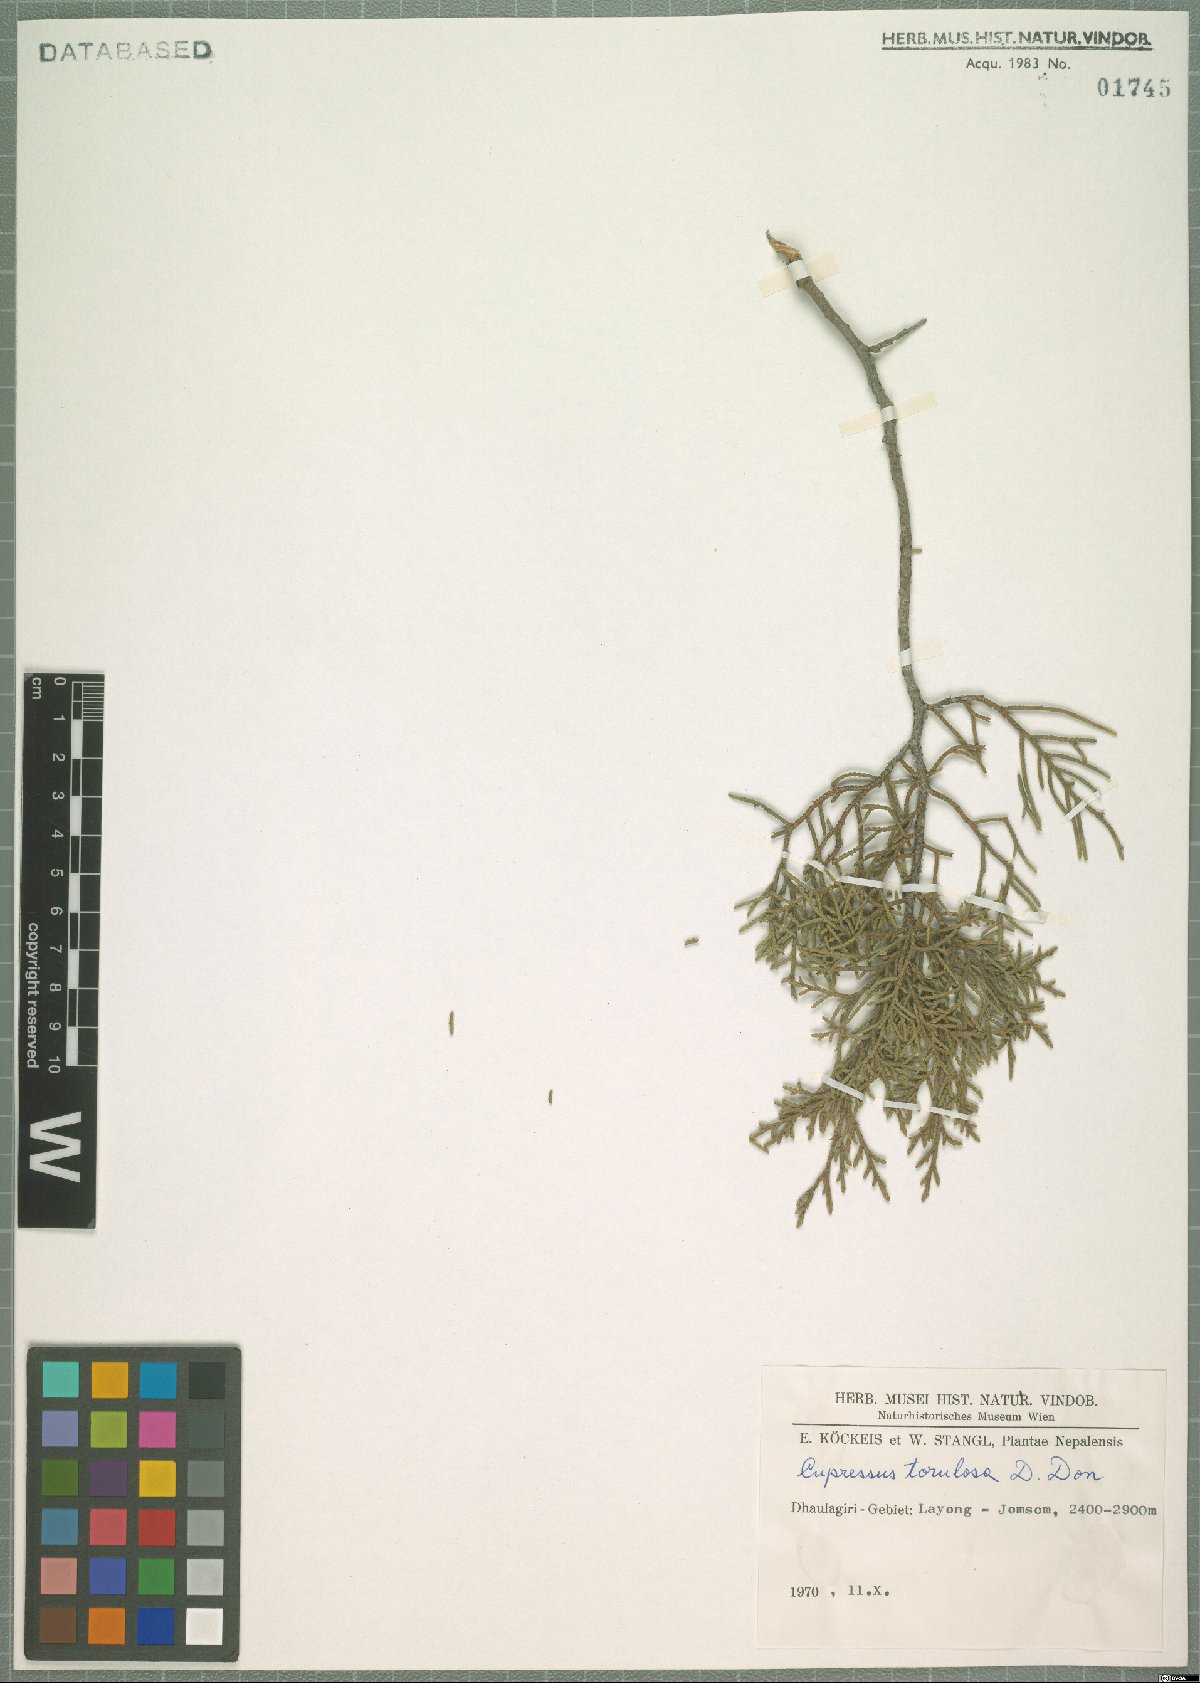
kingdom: Plantae
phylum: Tracheophyta
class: Pinopsida
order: Pinales
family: Cupressaceae
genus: Cupressus
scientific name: Cupressus torulosa
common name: Himalayan cypress
